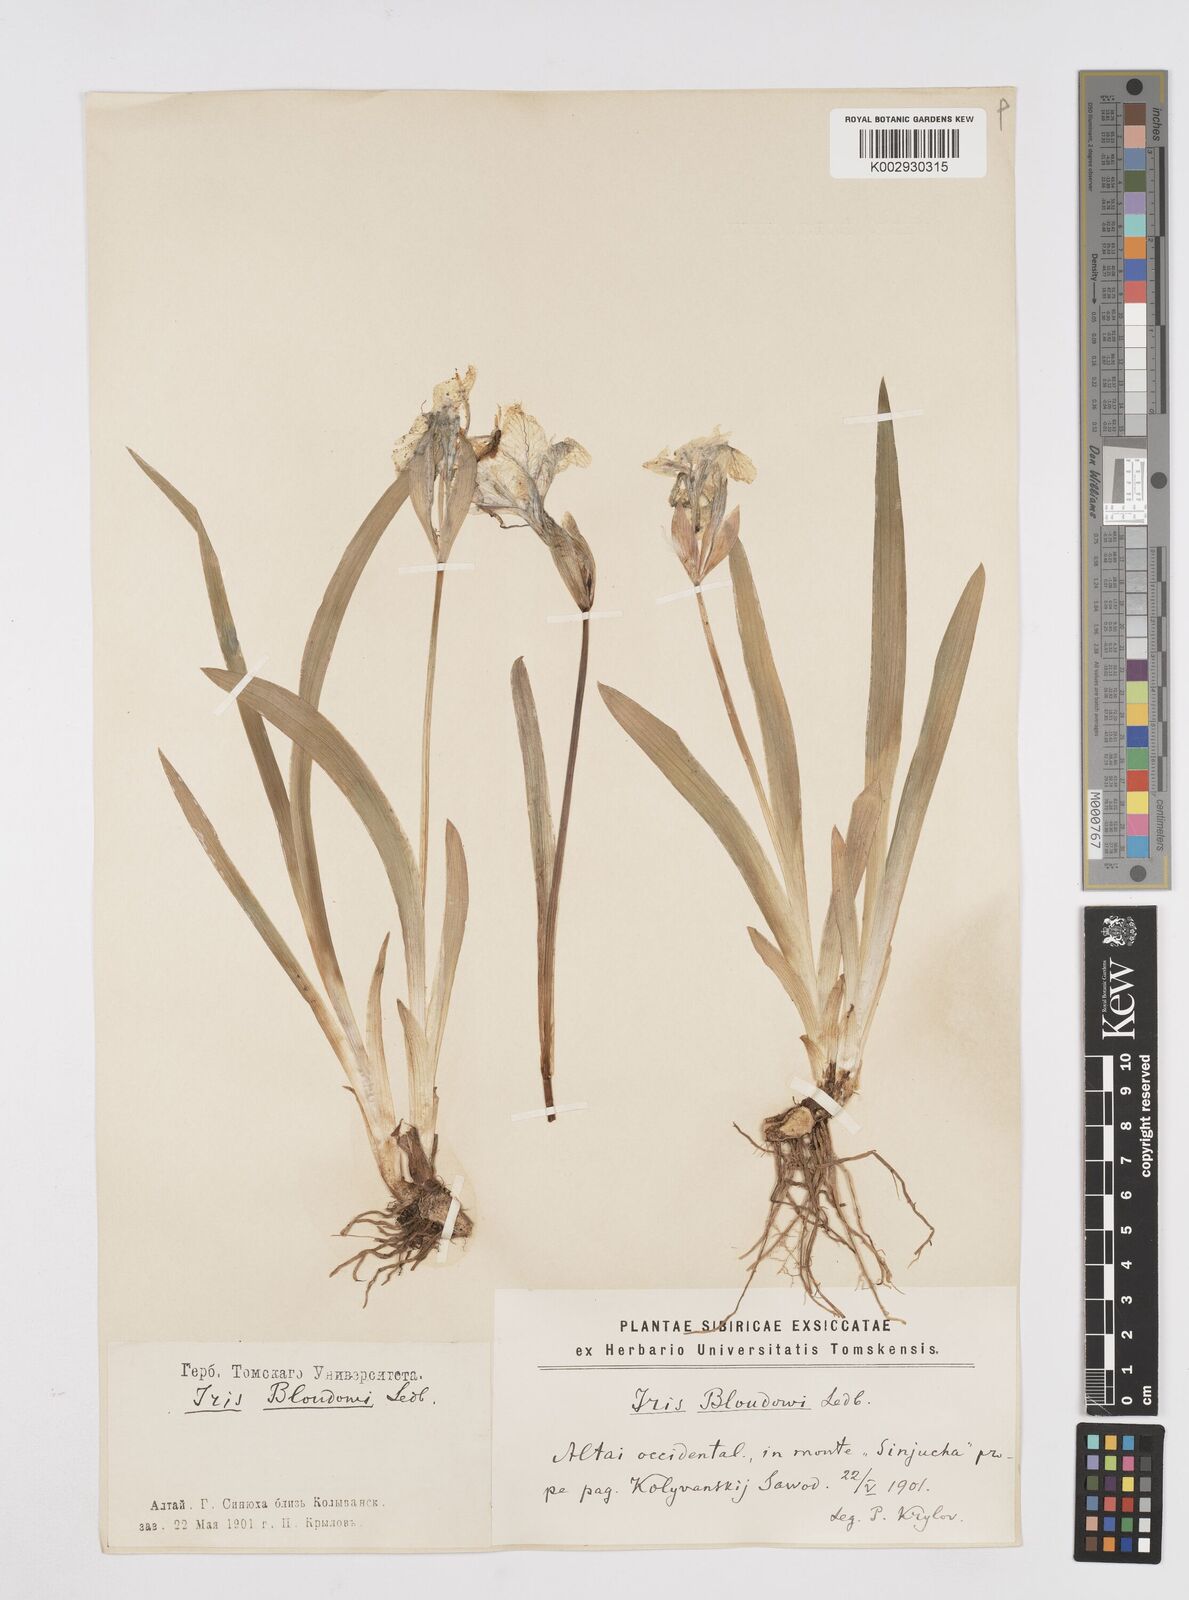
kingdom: Plantae
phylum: Tracheophyta
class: Liliopsida
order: Asparagales
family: Iridaceae
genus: Iris
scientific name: Iris bloudowii
